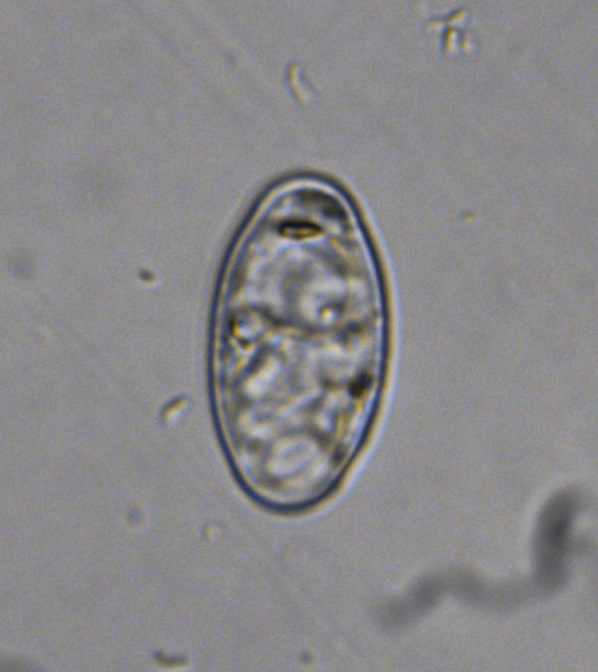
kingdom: Fungi
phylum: Ascomycota
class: Leotiomycetes
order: Helotiales
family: Erysiphaceae
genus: Podosphaera
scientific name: Podosphaera plantaginis
